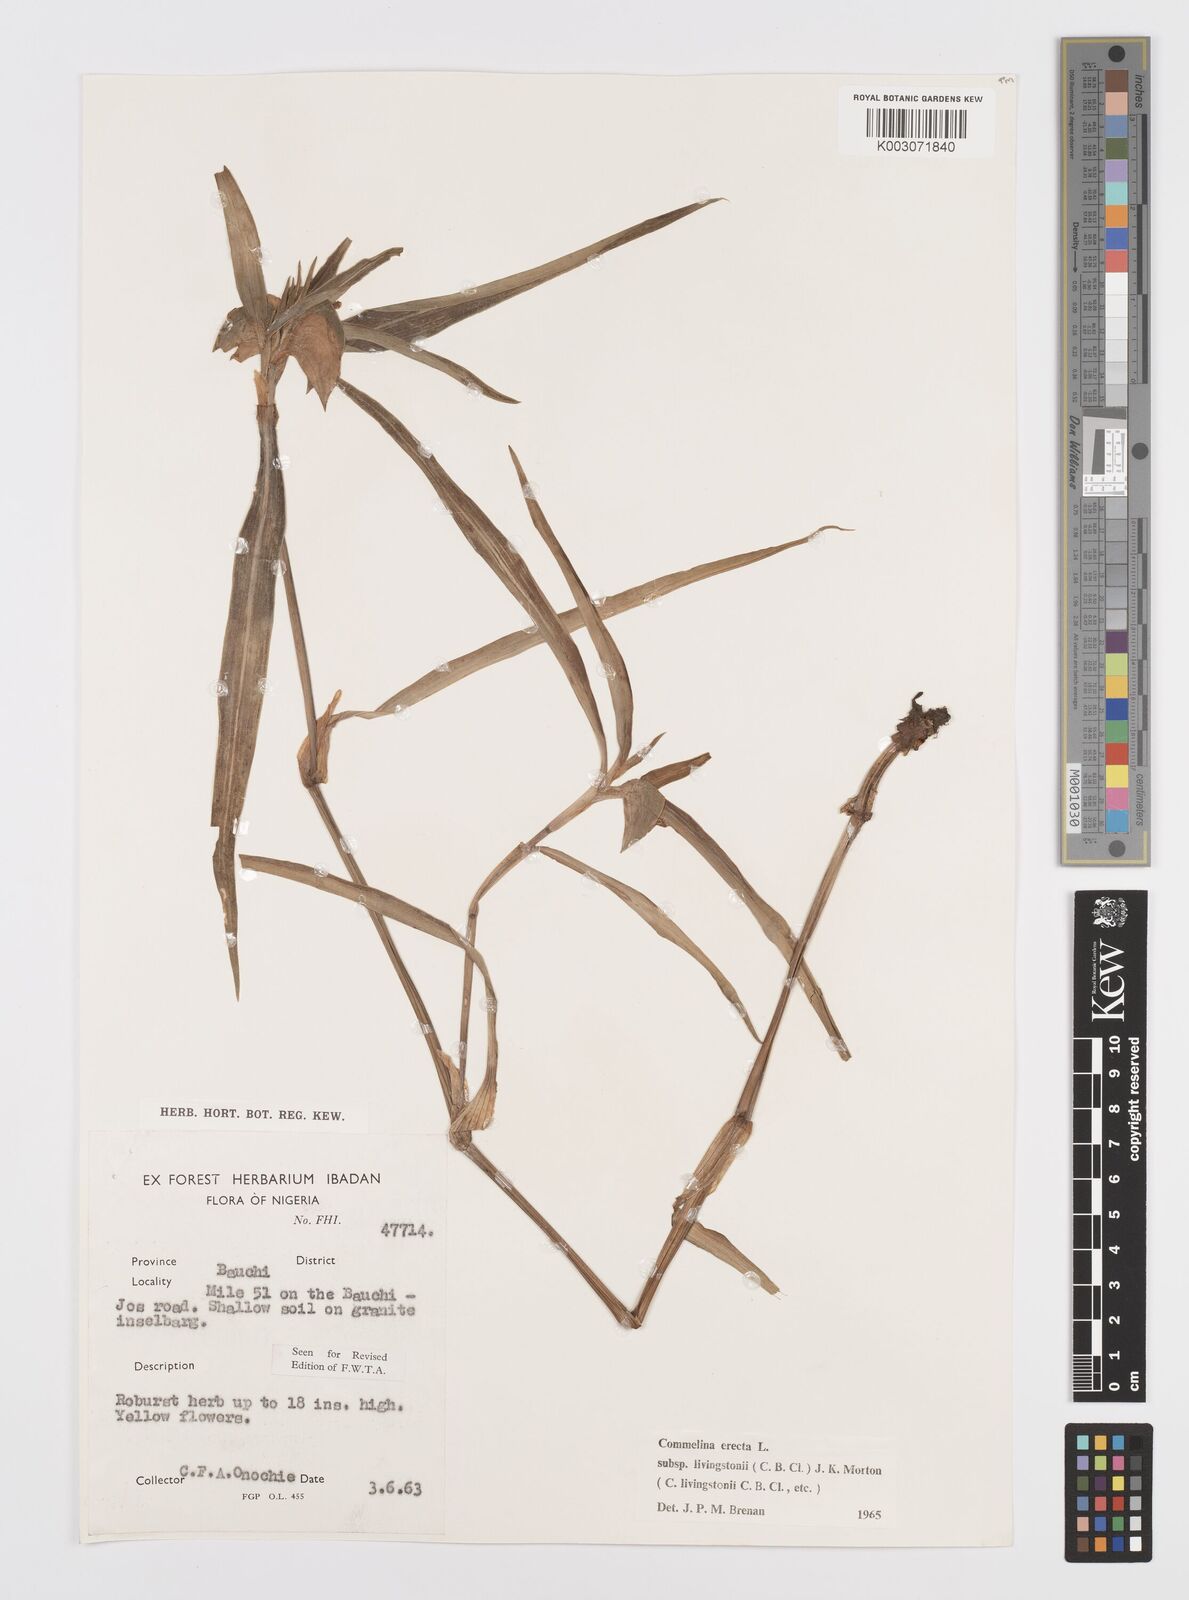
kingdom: Plantae
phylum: Tracheophyta
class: Liliopsida
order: Commelinales
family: Commelinaceae
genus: Commelina
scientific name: Commelina erecta
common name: Blousel blommetjie
